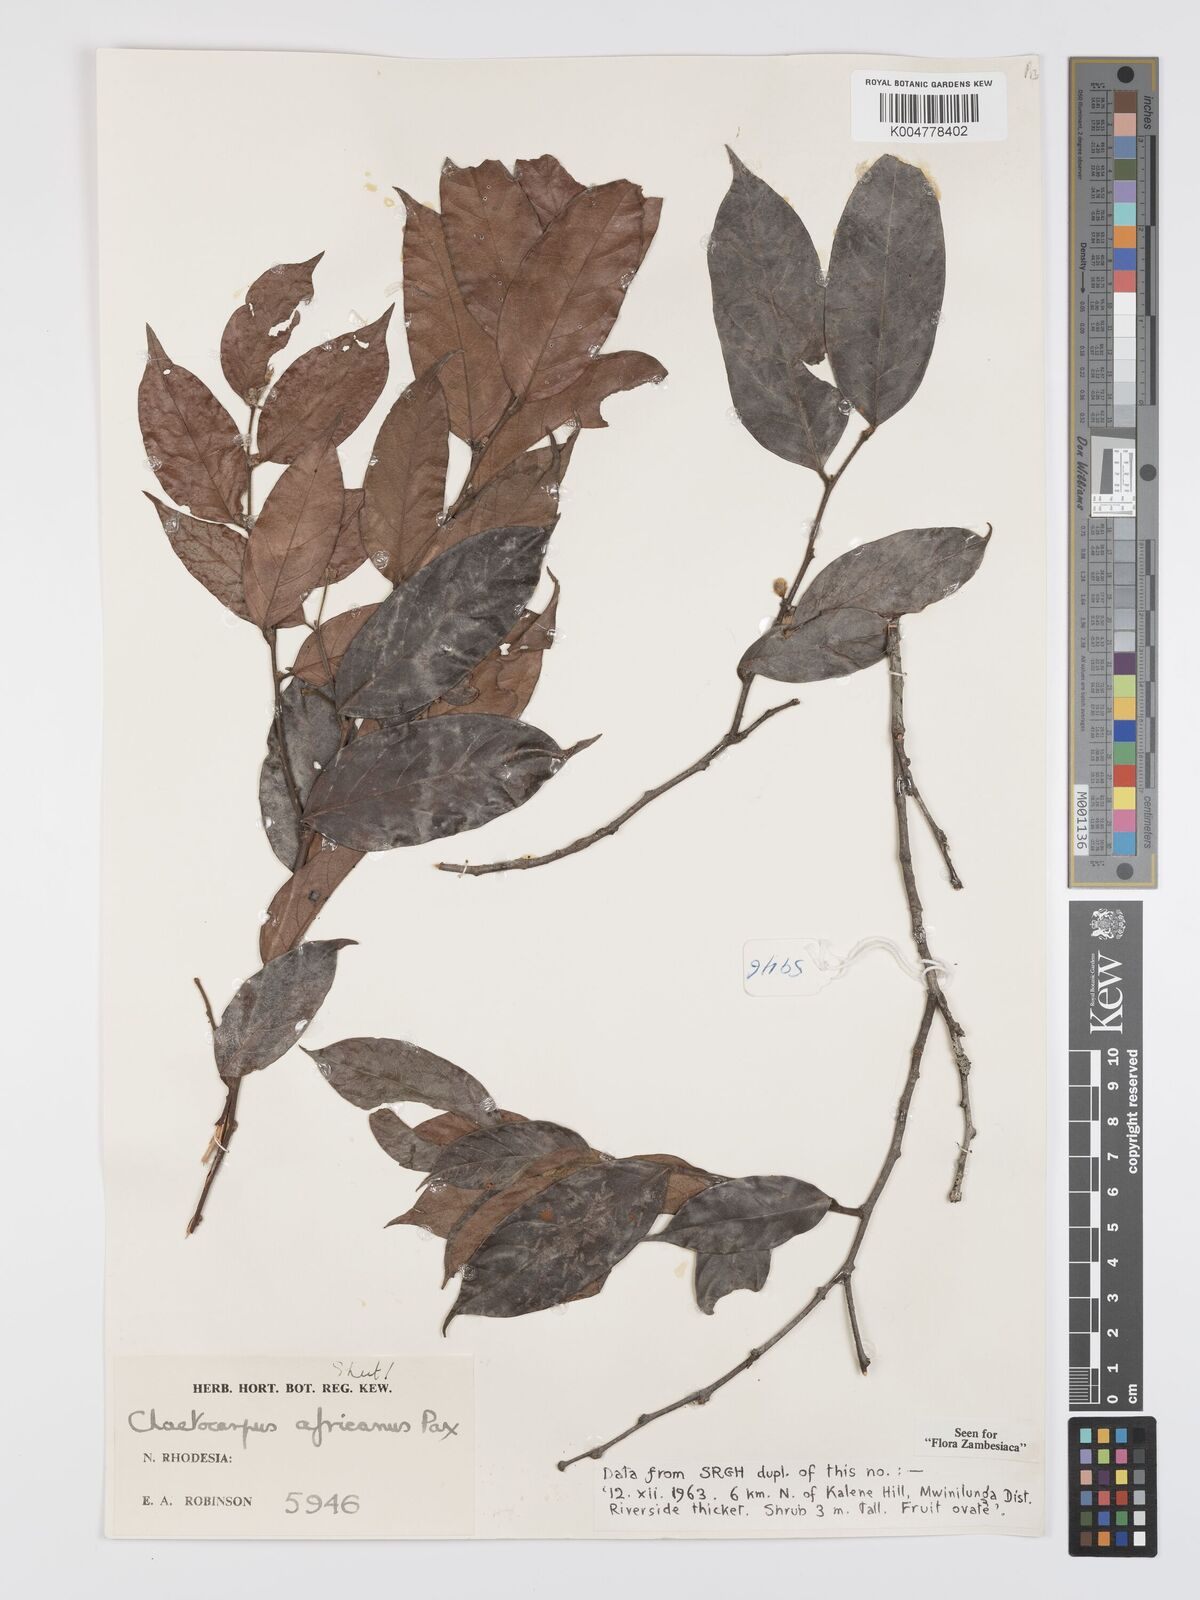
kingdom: Plantae
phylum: Tracheophyta
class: Magnoliopsida
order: Malpighiales
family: Peraceae
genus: Chaetocarpus
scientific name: Chaetocarpus africanus
